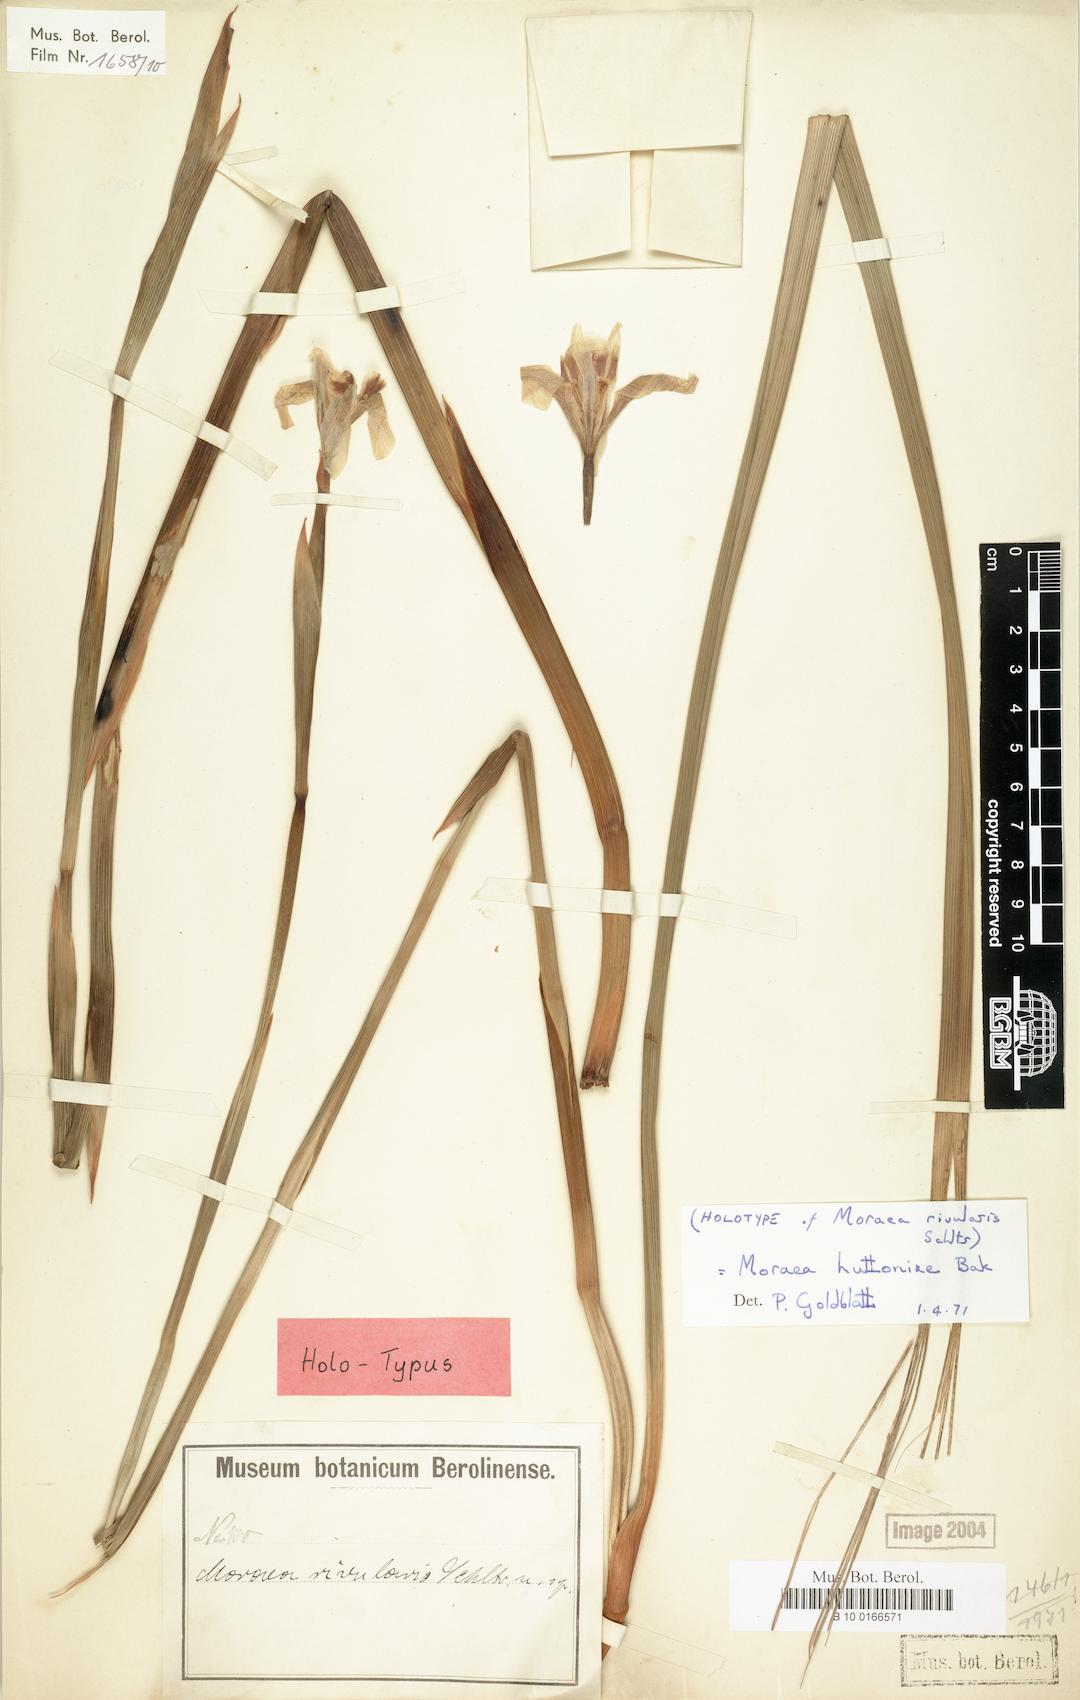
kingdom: Plantae
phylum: Tracheophyta
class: Liliopsida
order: Asparagales
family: Iridaceae
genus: Moraea
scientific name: Moraea huttonii
